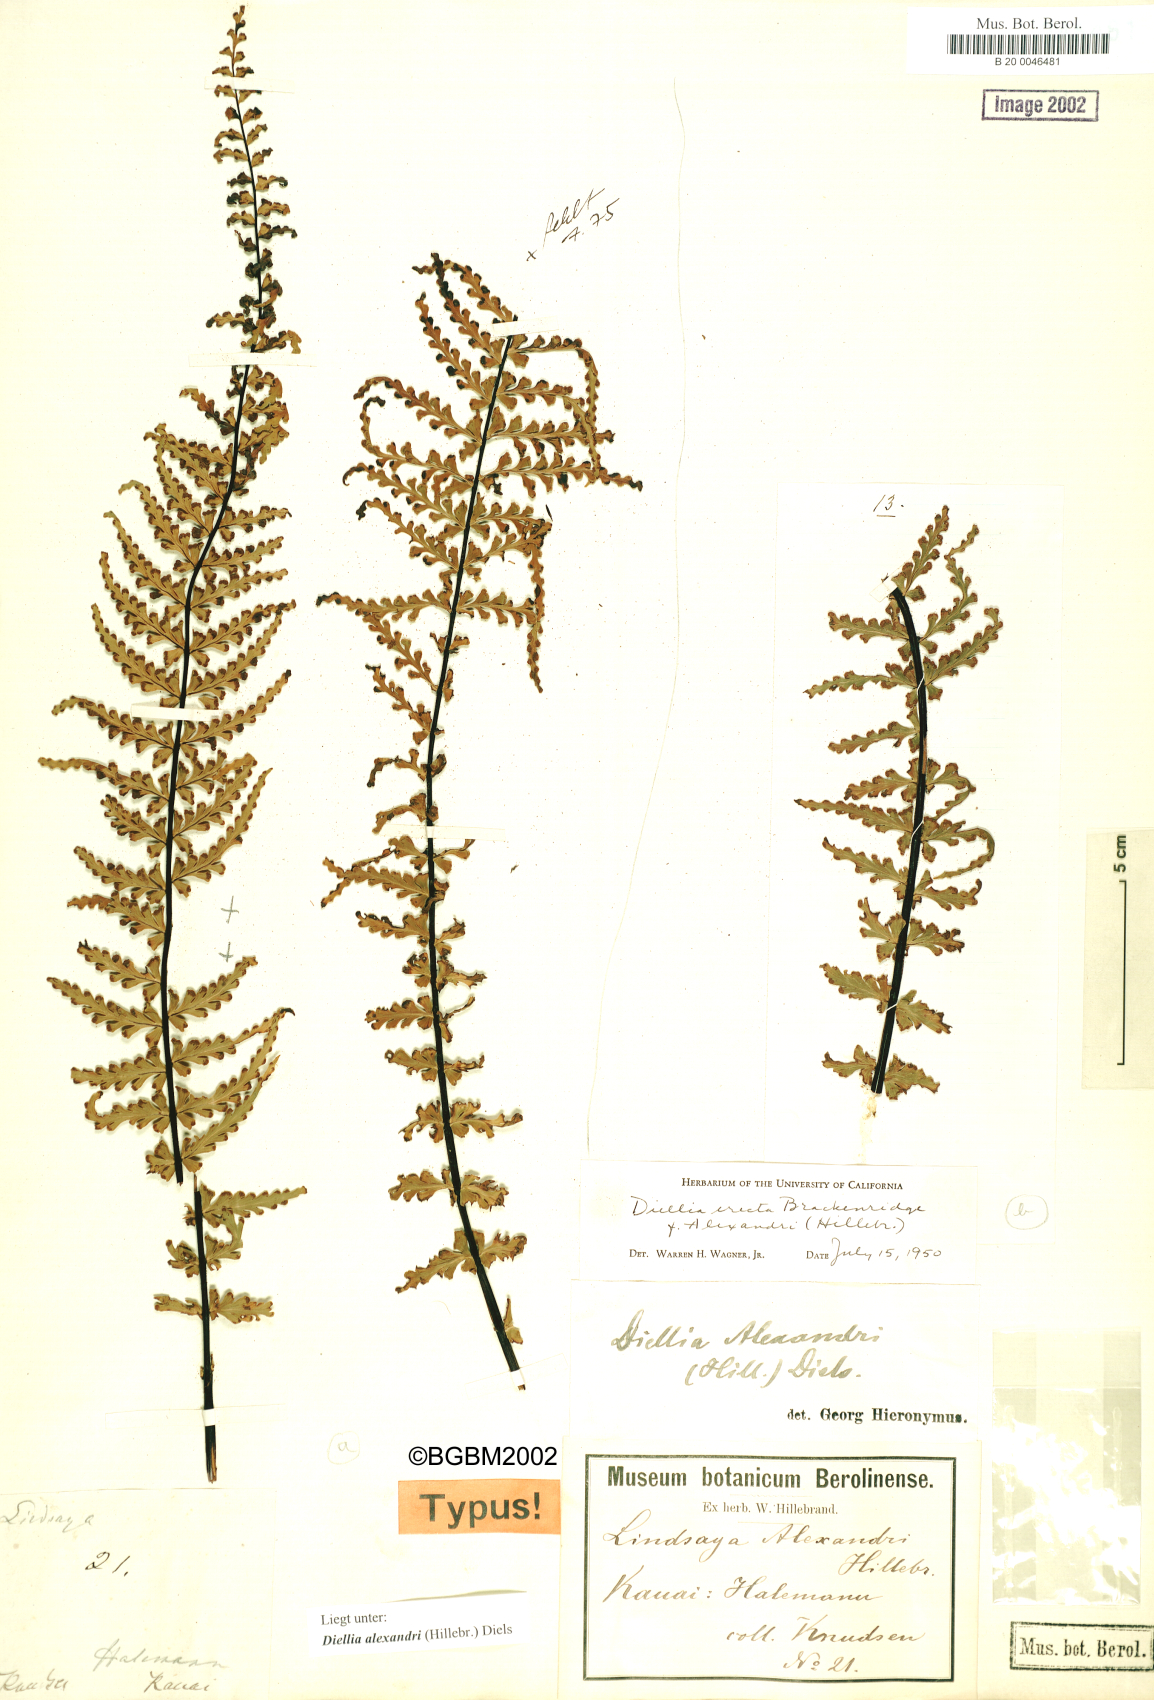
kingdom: Plantae
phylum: Tracheophyta
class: Polypodiopsida
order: Polypodiales
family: Aspleniaceae
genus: Asplenium
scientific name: Asplenium dielerectum
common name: Erect island spleenwort
